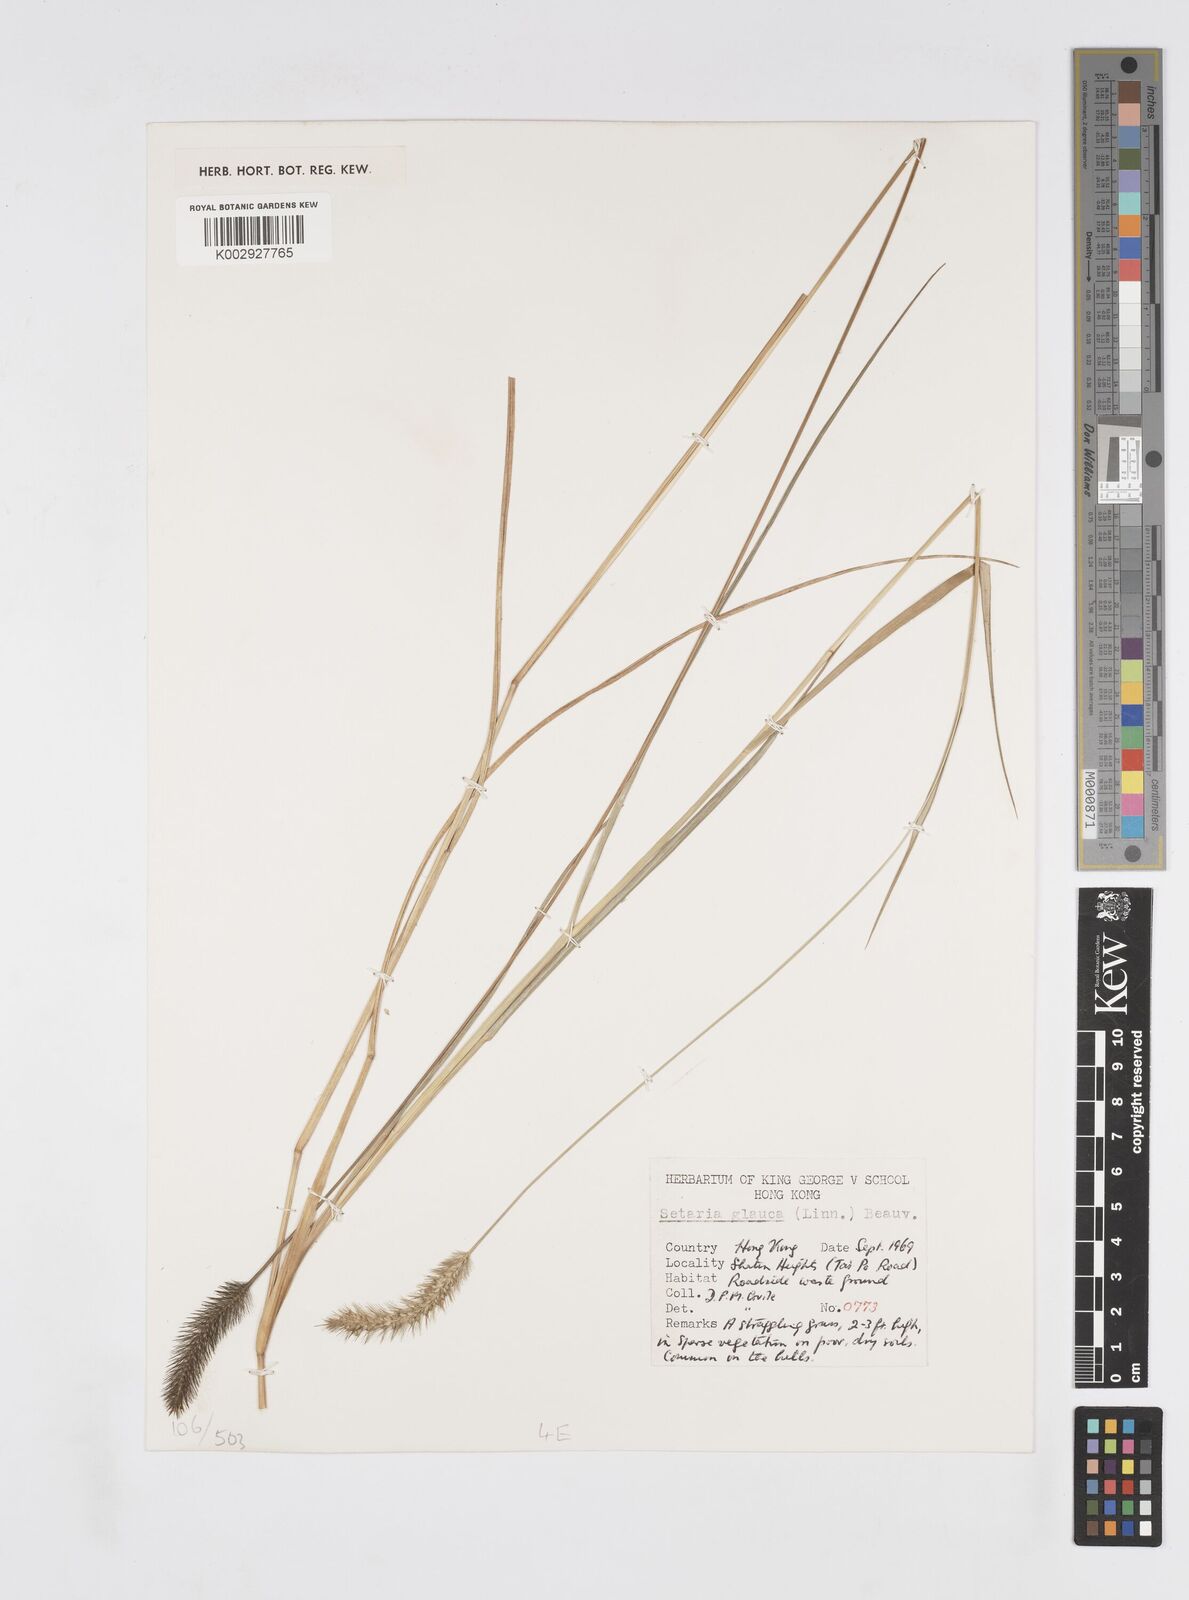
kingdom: Plantae
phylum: Tracheophyta
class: Liliopsida
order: Poales
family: Poaceae
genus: Cenchrus
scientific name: Cenchrus
